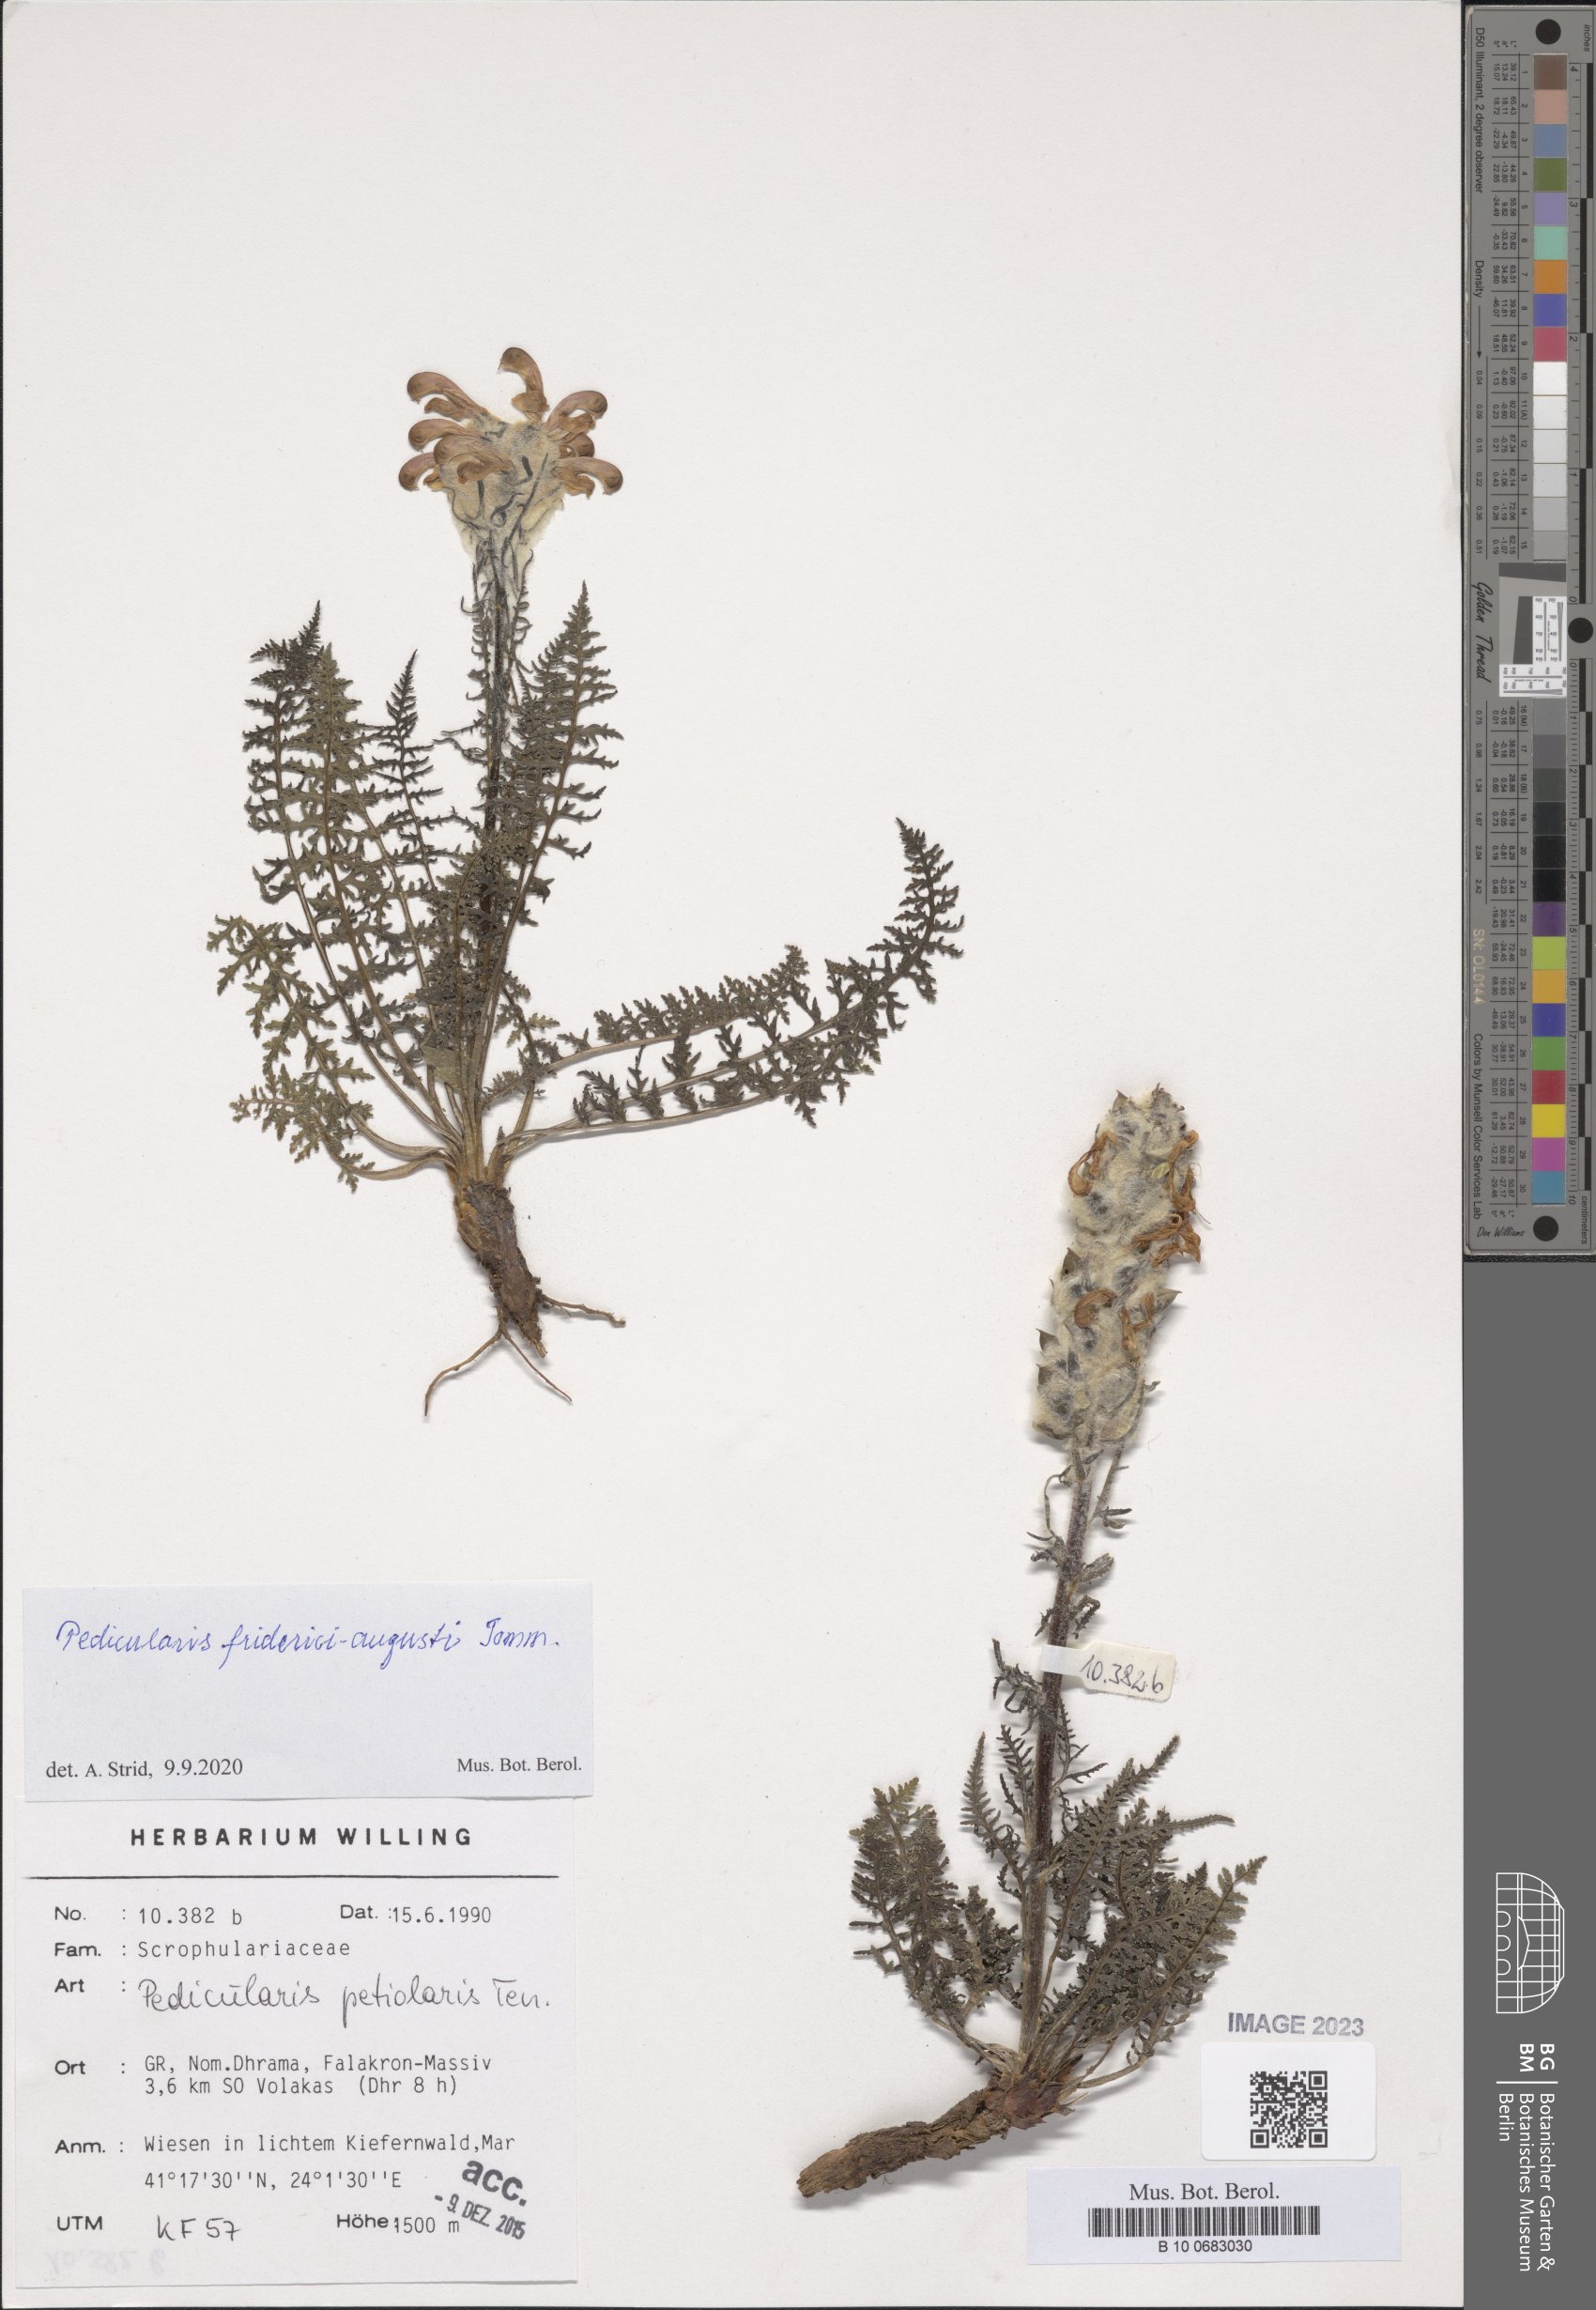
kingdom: Plantae
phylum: Tracheophyta
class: Magnoliopsida
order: Lamiales
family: Orobanchaceae
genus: Pedicularis
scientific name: Pedicularis friderici-augusti
